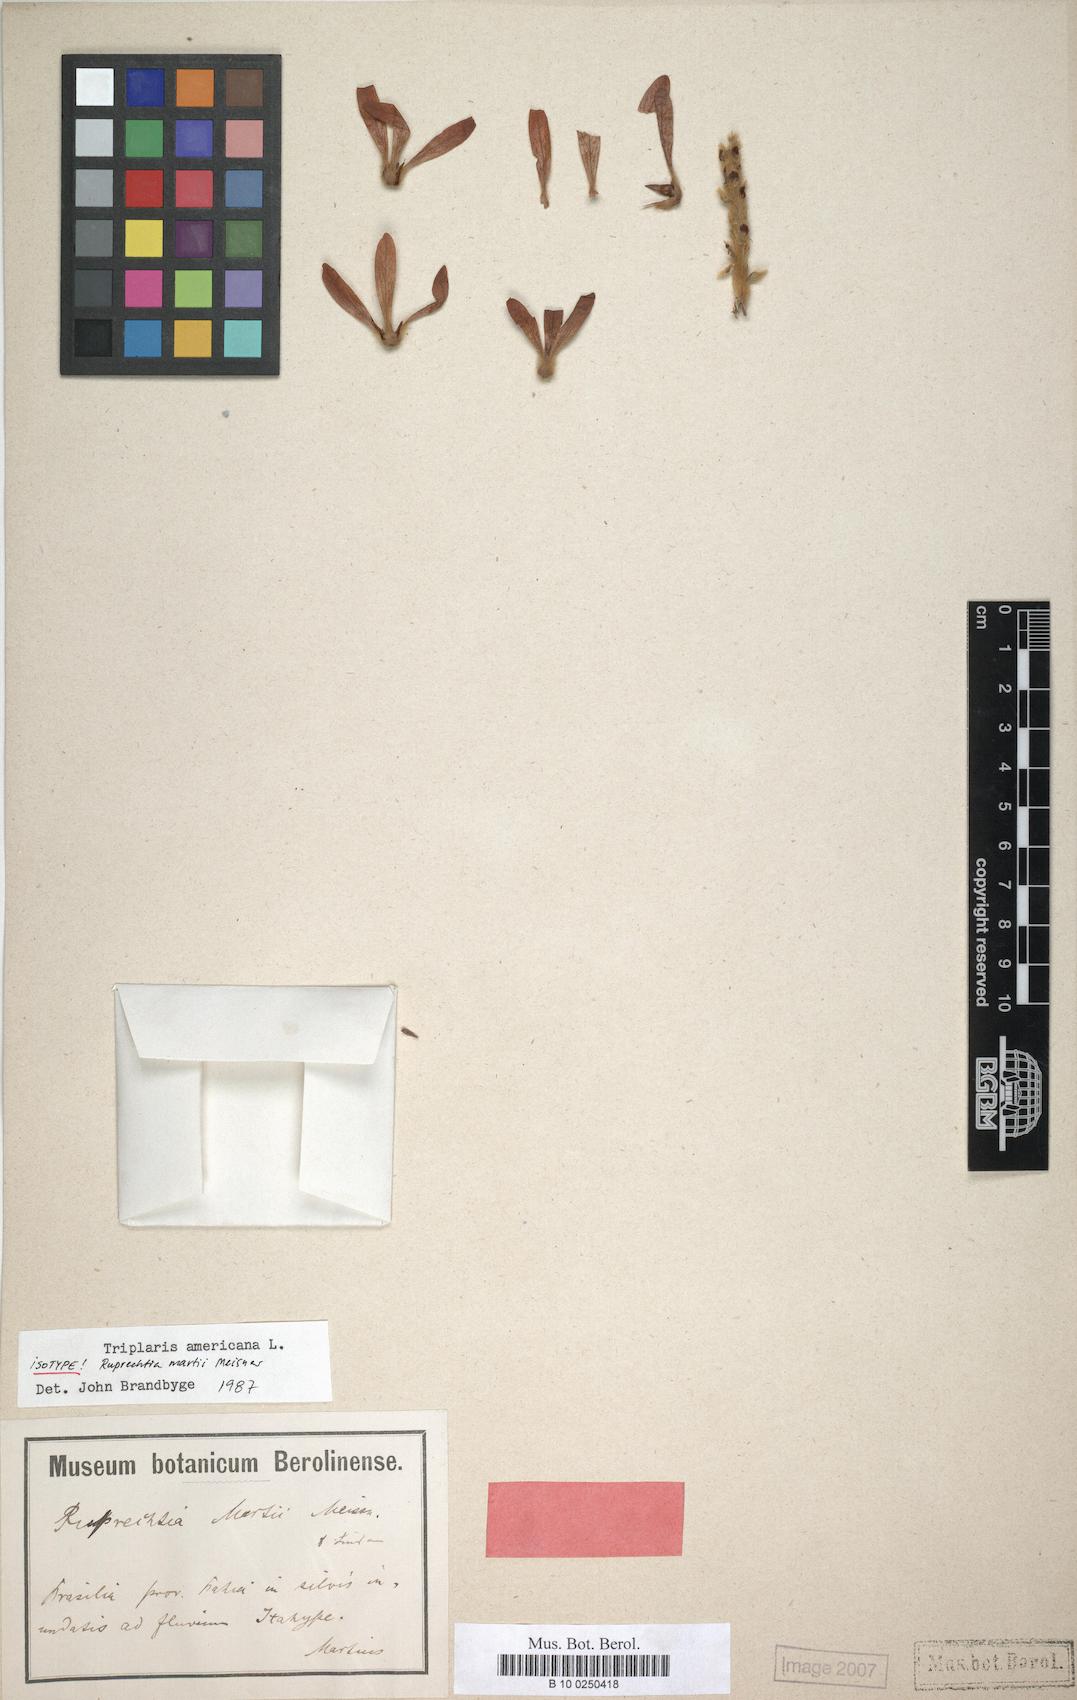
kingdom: Plantae
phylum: Tracheophyta
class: Magnoliopsida
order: Caryophyllales
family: Polygonaceae
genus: Triplaris
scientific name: Triplaris americana
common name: Ant-tree
